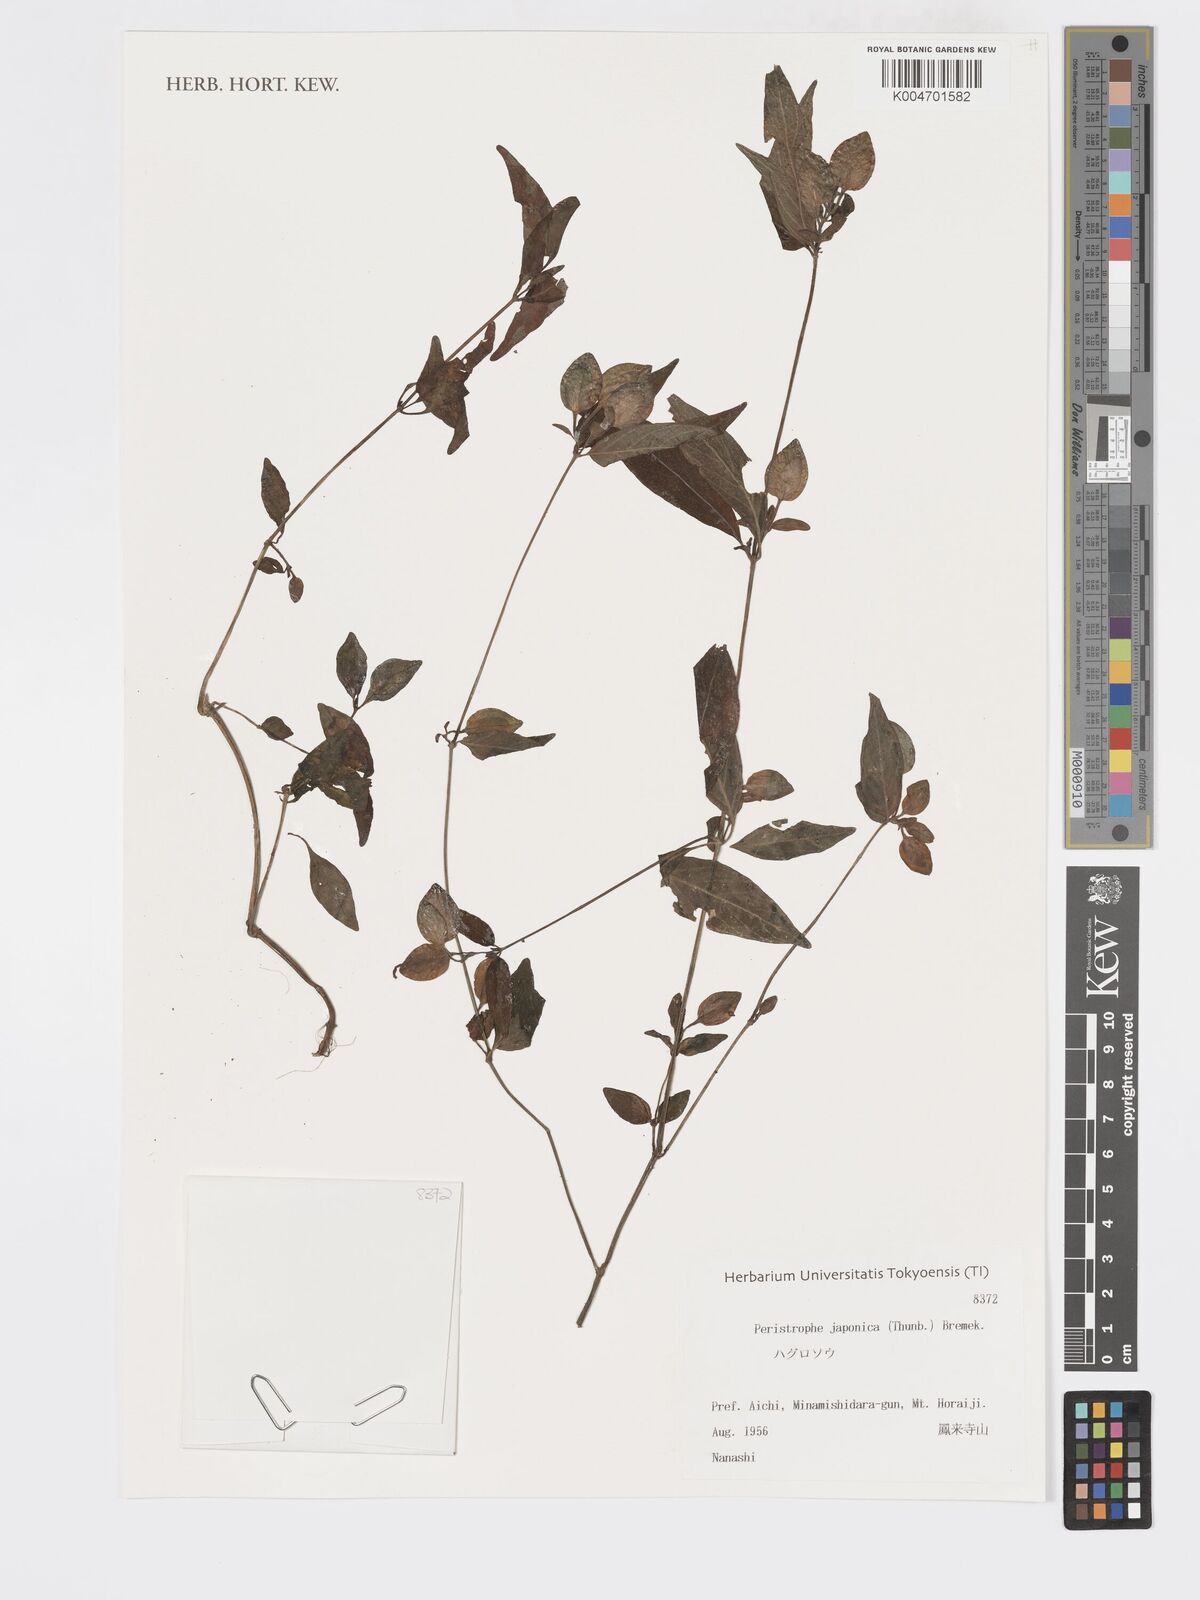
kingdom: Plantae
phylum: Tracheophyta
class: Magnoliopsida
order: Lamiales
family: Acanthaceae
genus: Dicliptera
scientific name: Dicliptera japonica
